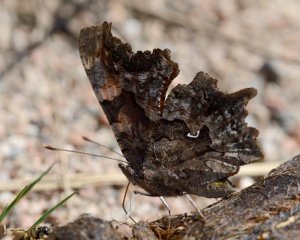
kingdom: Animalia
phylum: Arthropoda
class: Insecta
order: Lepidoptera
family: Nymphalidae
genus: Polygonia
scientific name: Polygonia faunus
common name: Green Comma
